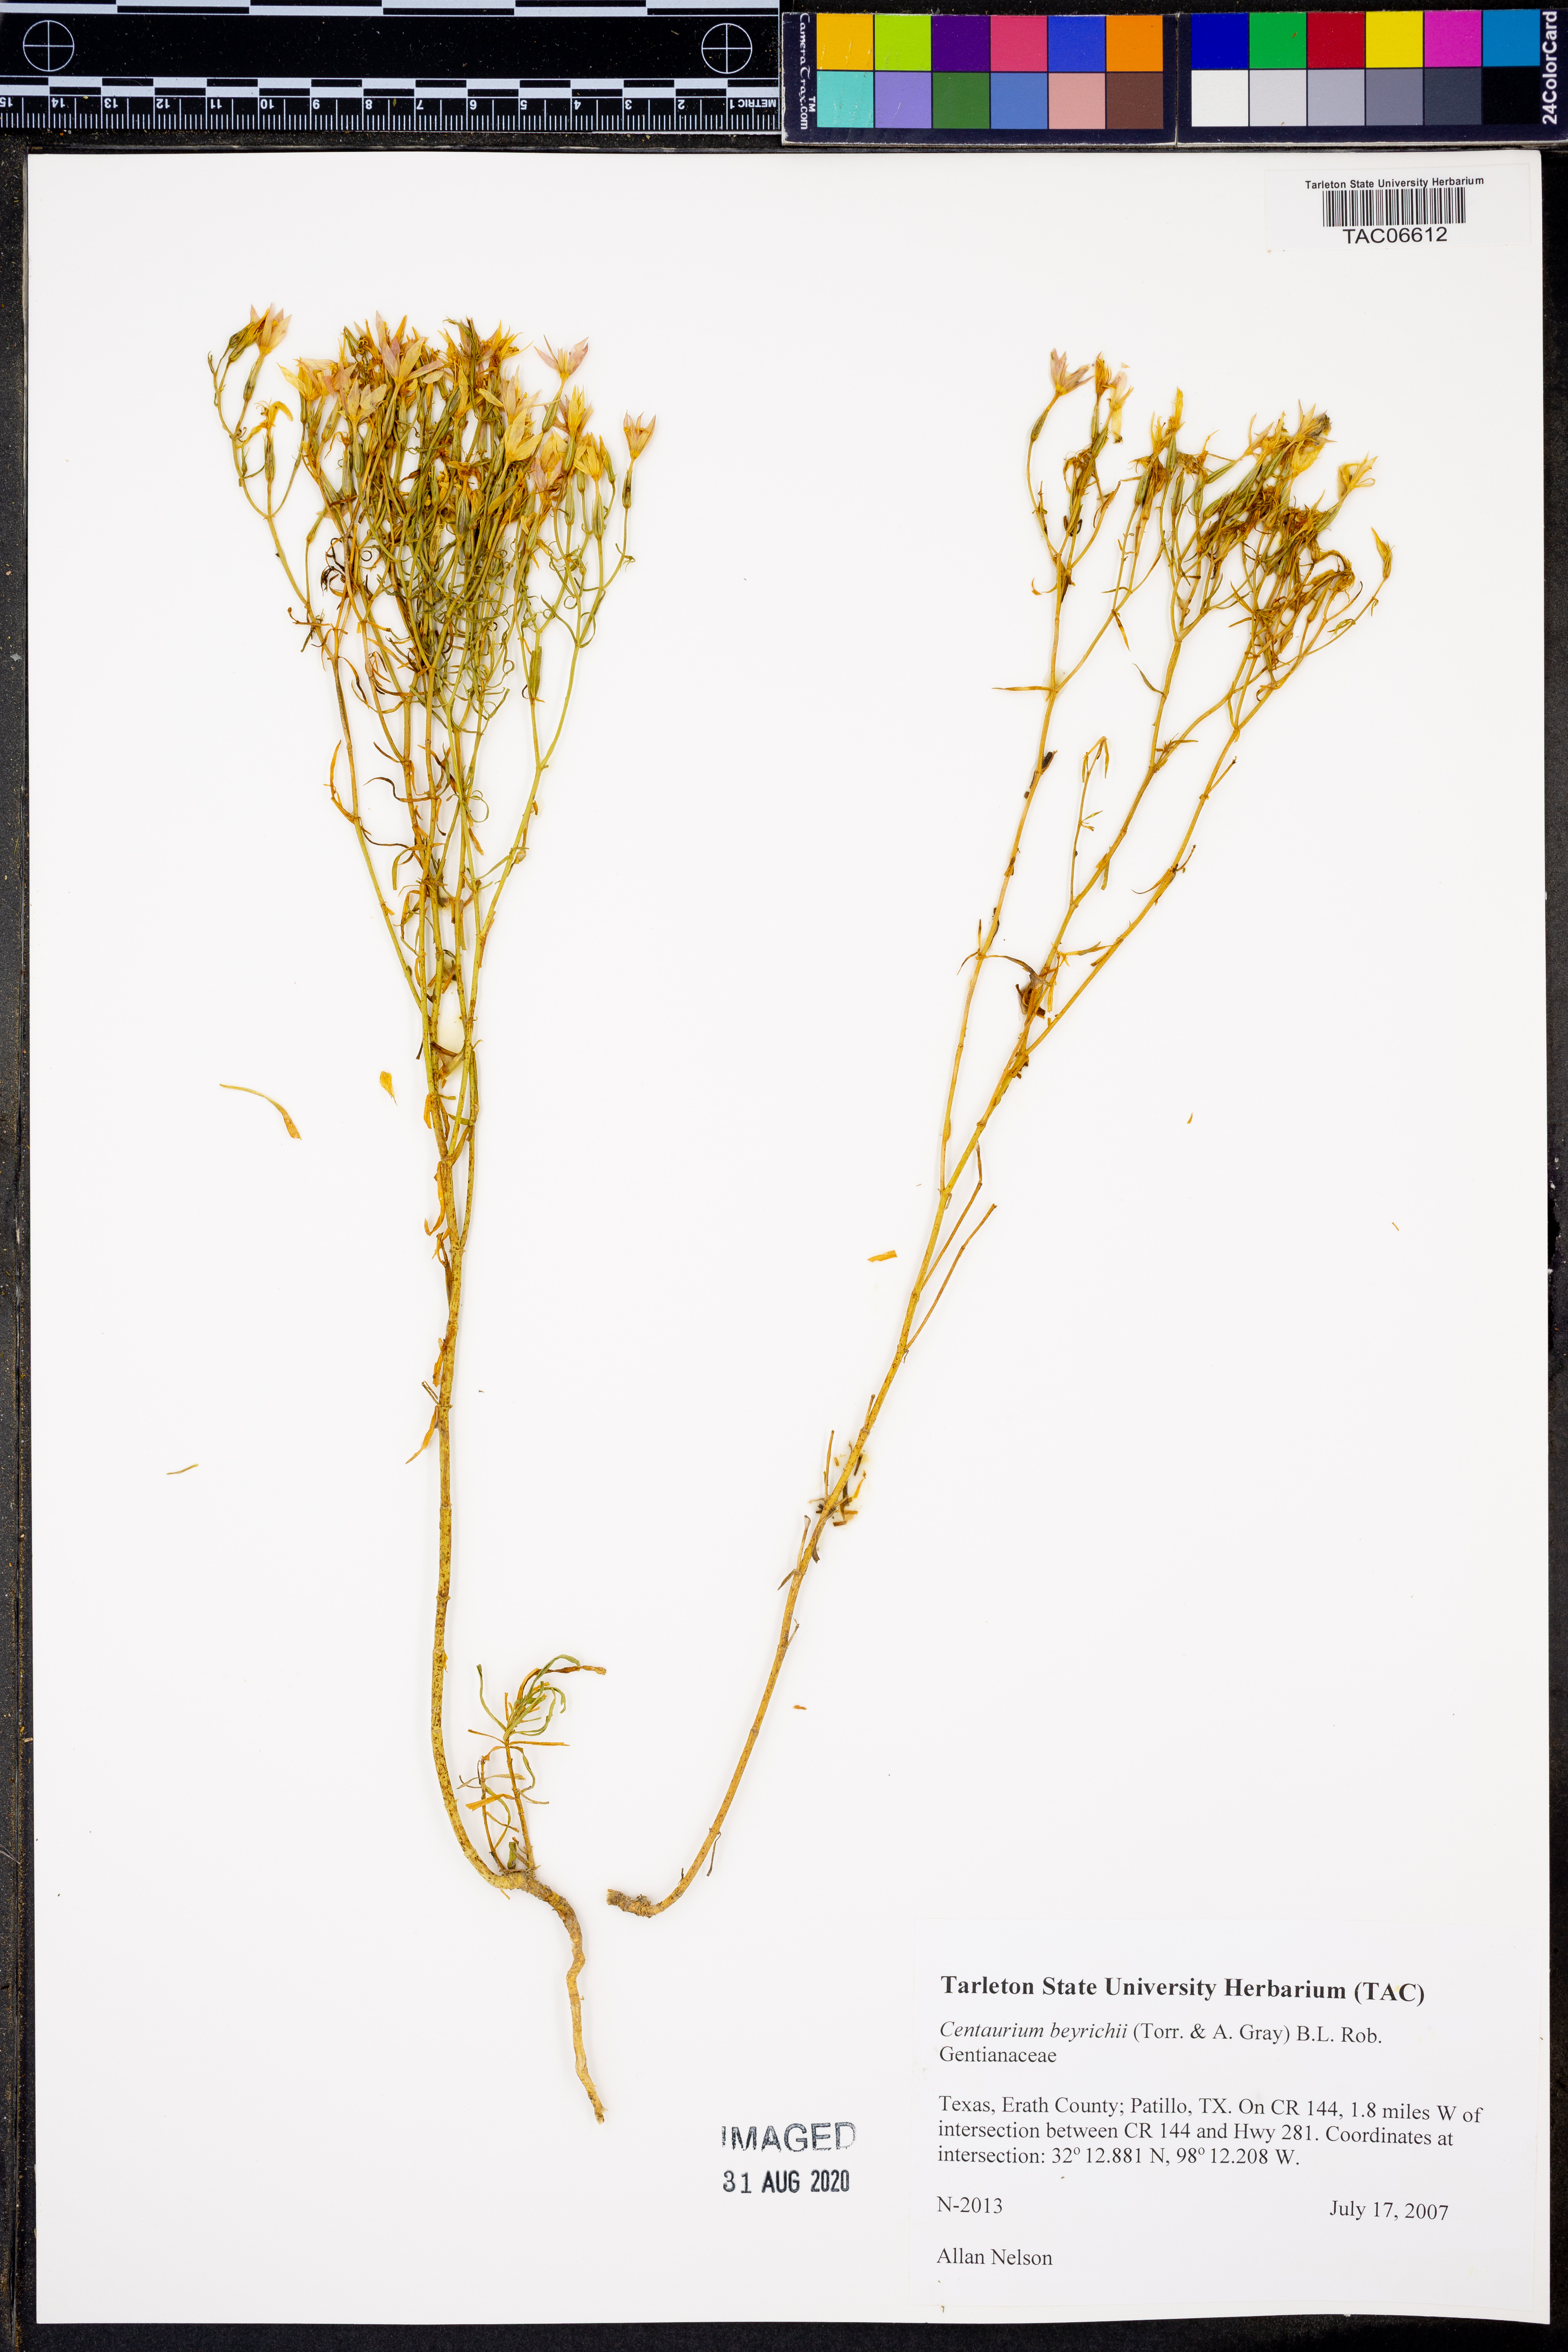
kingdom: Plantae
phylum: Tracheophyta
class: Magnoliopsida
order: Gentianales
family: Gentianaceae
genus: Zeltnera
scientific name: Zeltnera beyrichii
